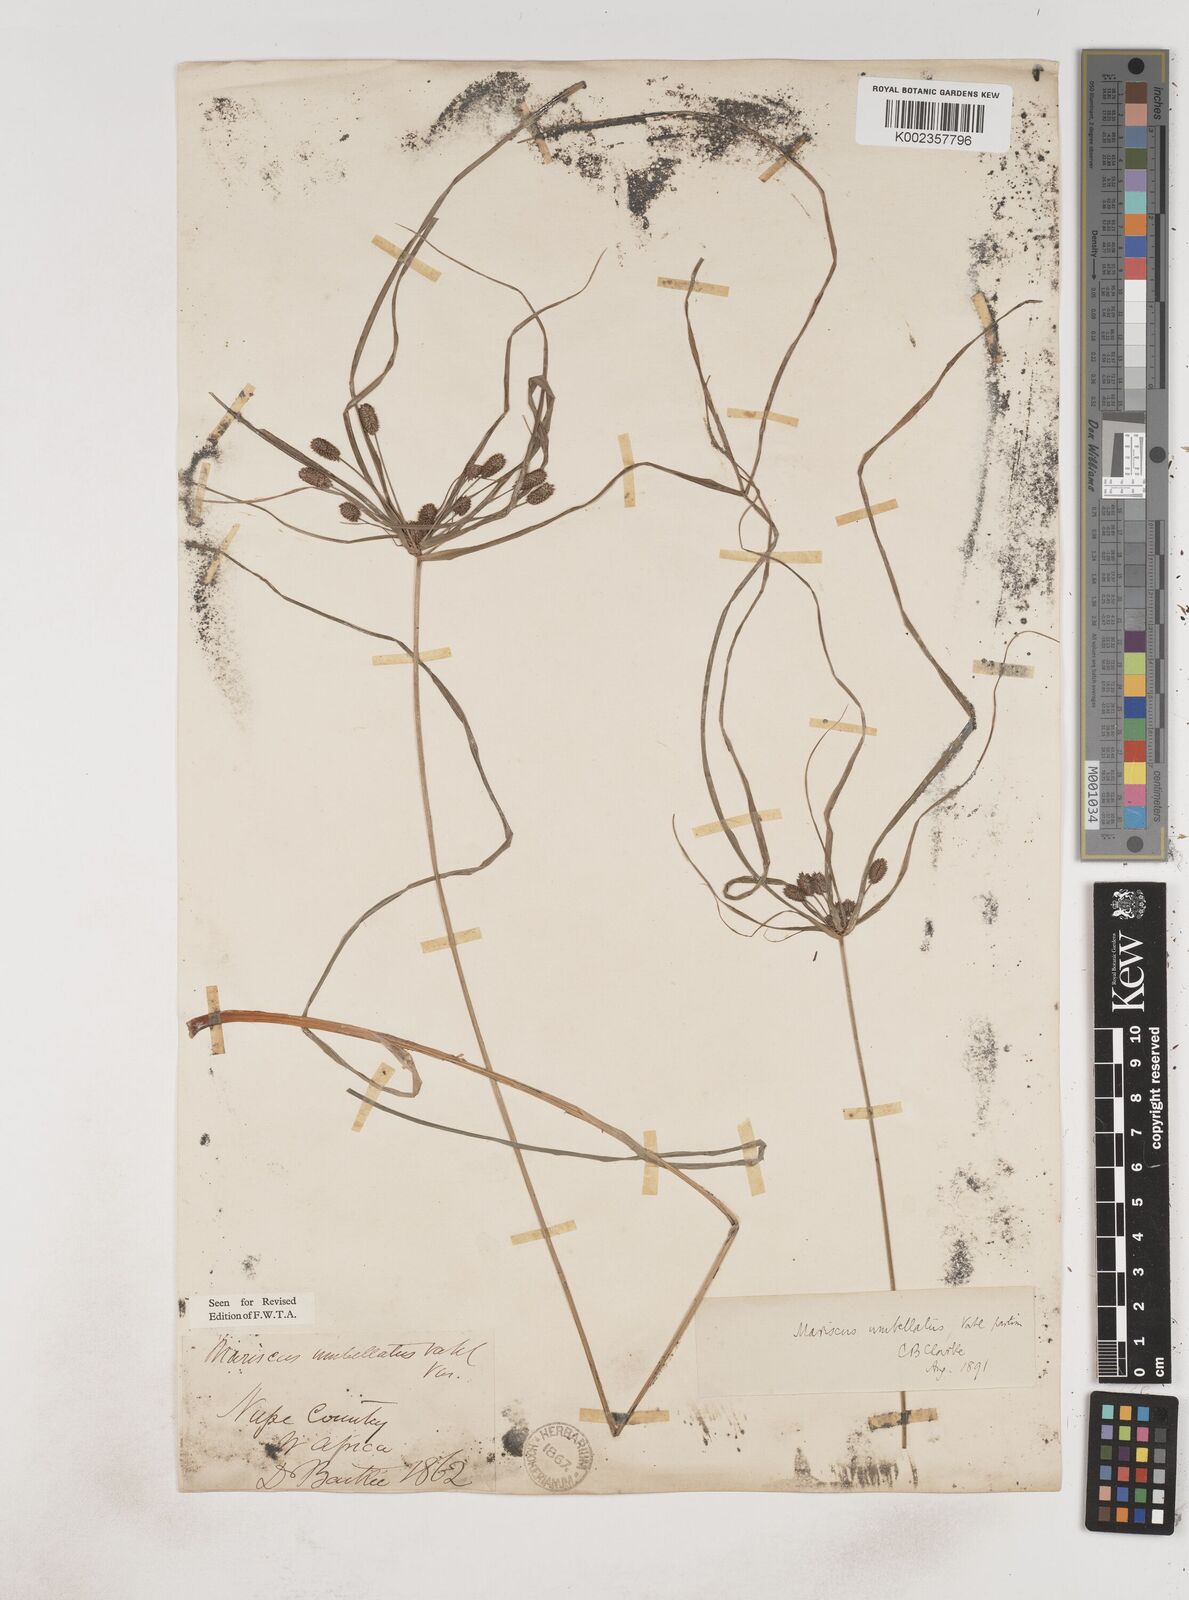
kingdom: Plantae
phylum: Tracheophyta
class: Liliopsida
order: Poales
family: Cyperaceae
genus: Cyperus
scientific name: Cyperus sublimis
